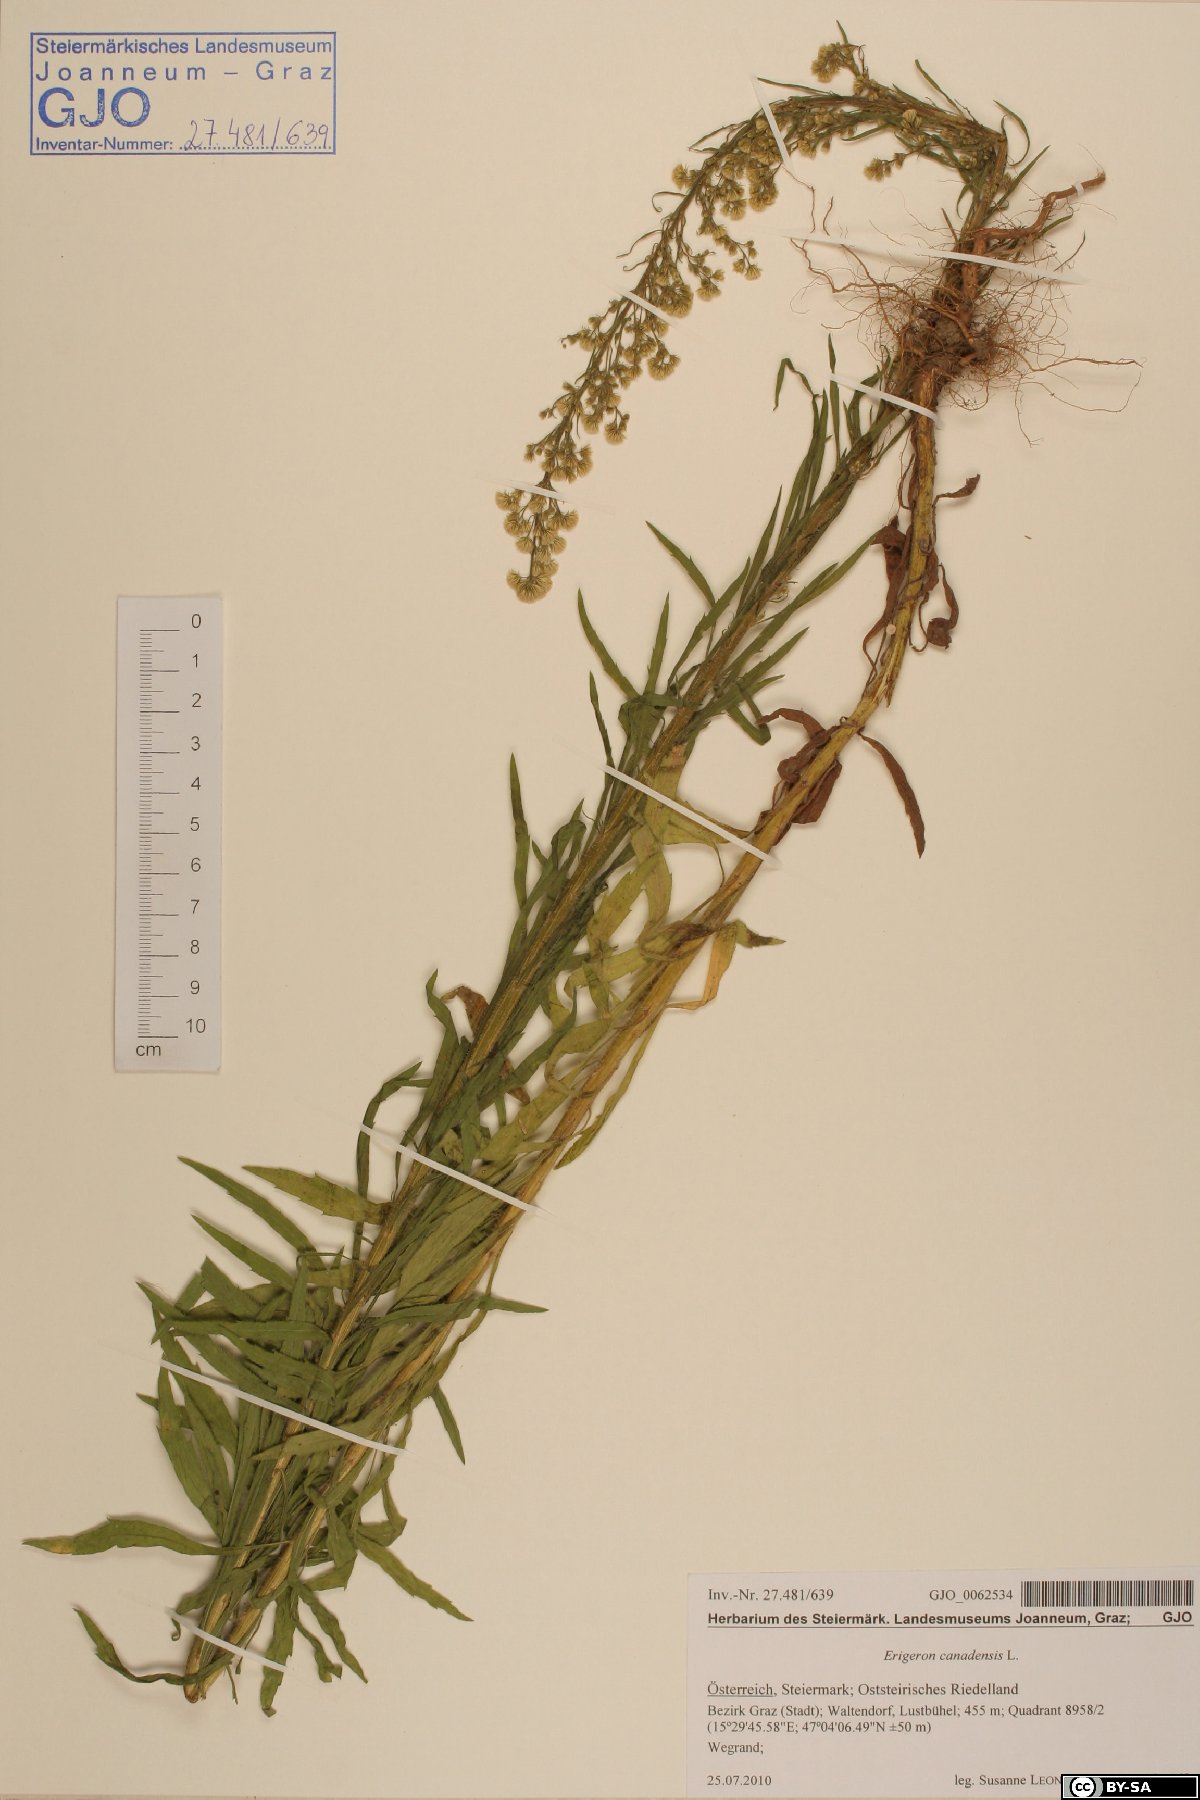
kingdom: Plantae
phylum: Tracheophyta
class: Magnoliopsida
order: Asterales
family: Asteraceae
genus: Erigeron
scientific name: Erigeron canadensis
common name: Canadian fleabane
